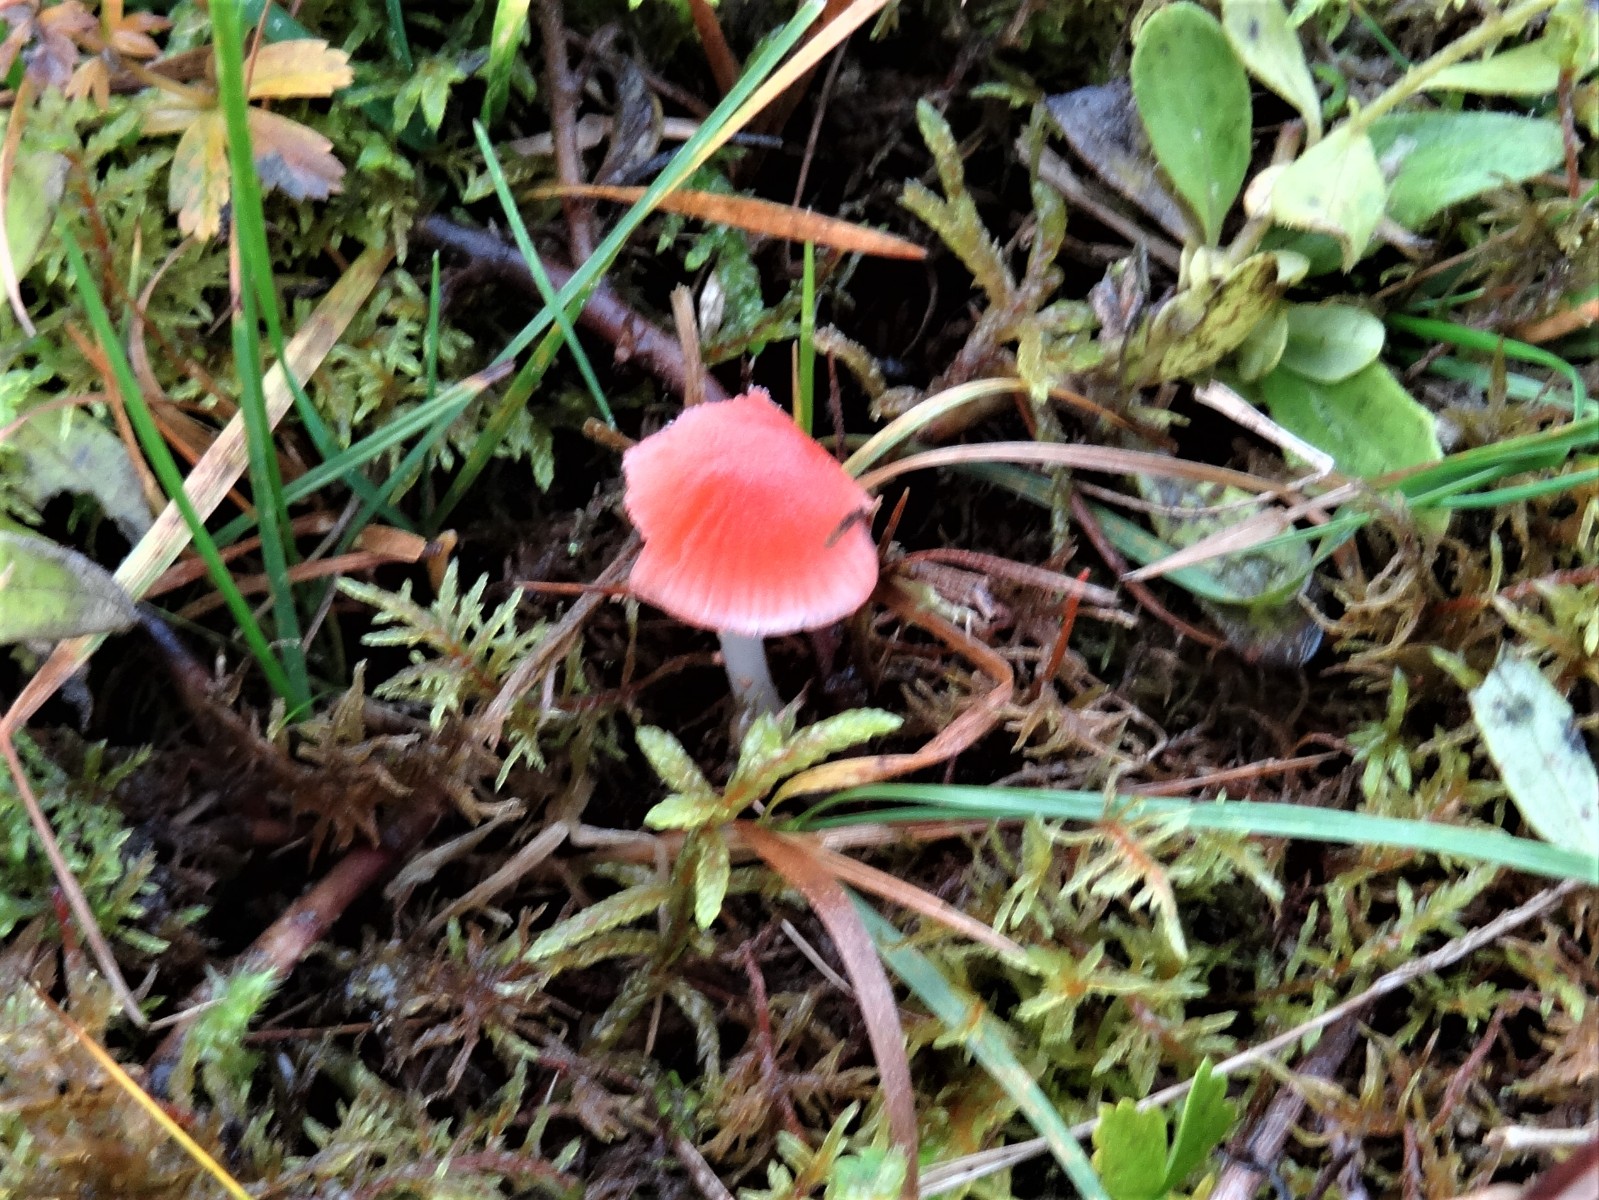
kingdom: Fungi
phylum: Basidiomycota
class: Agaricomycetes
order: Agaricales
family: Mycenaceae
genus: Atheniella
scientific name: Atheniella adonis
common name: rønnerød huesvamp
